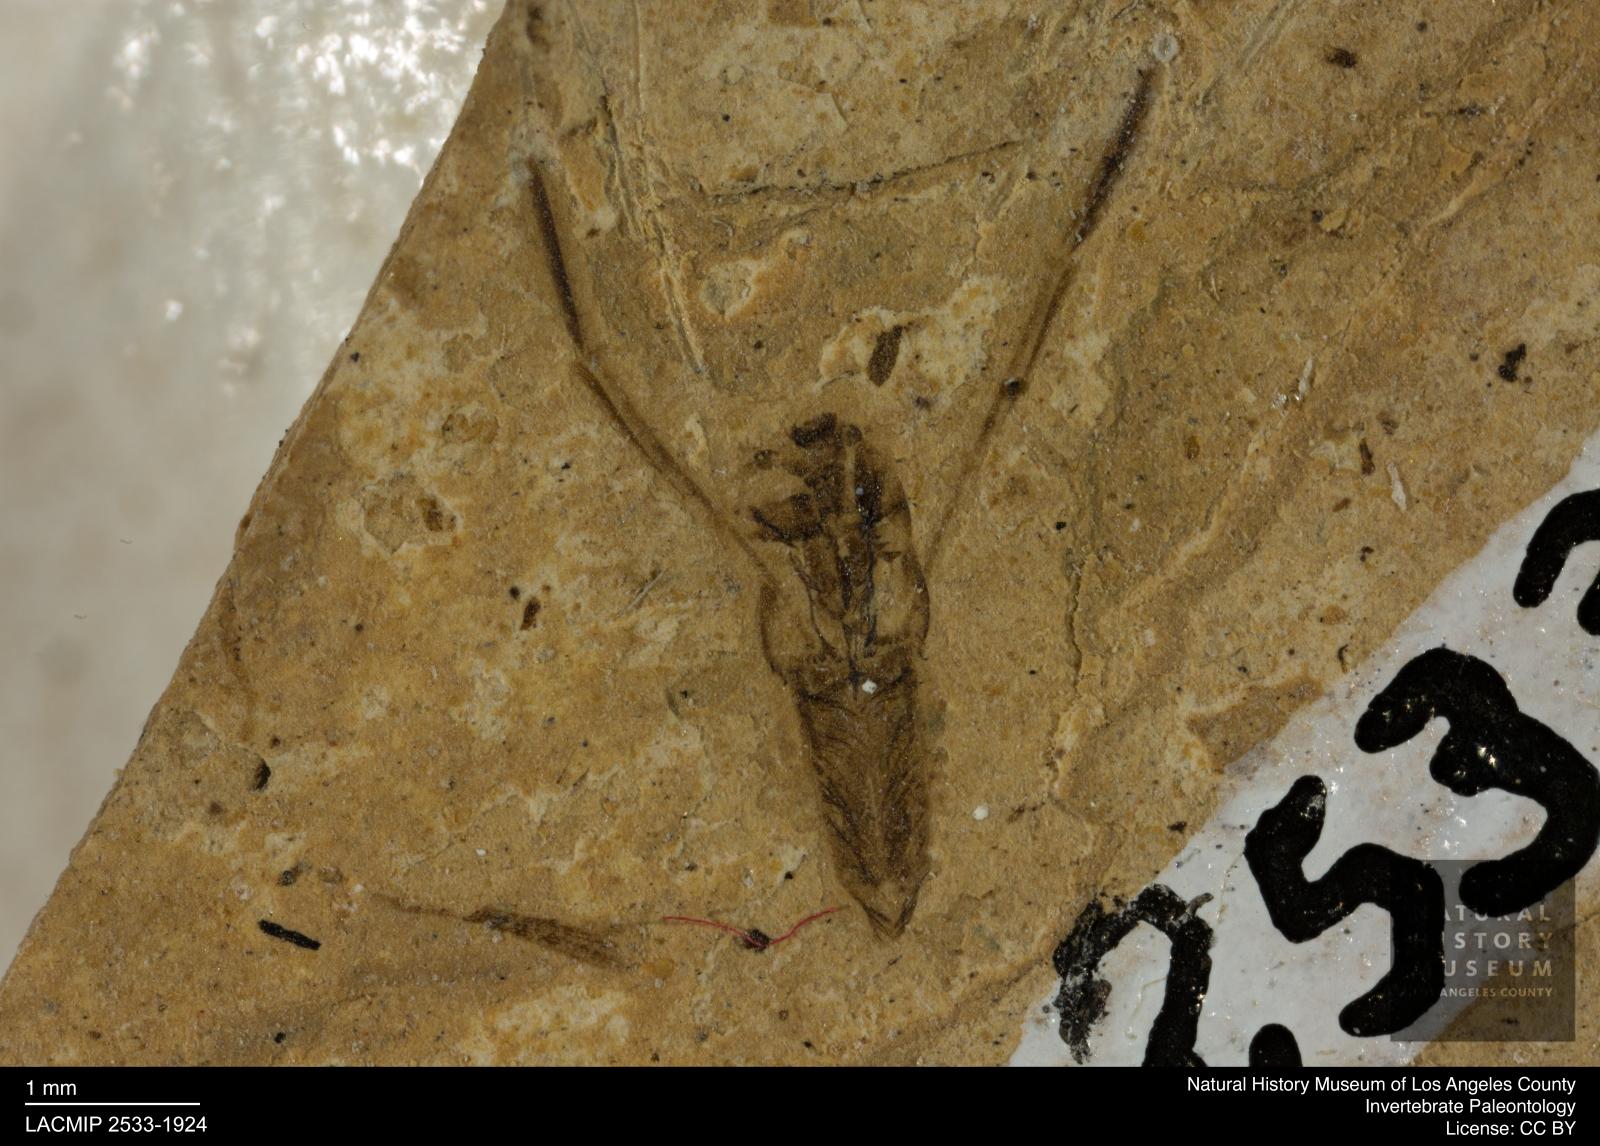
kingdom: Animalia
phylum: Arthropoda
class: Insecta
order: Hemiptera
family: Notonectidae
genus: Notonecta
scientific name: Notonecta
